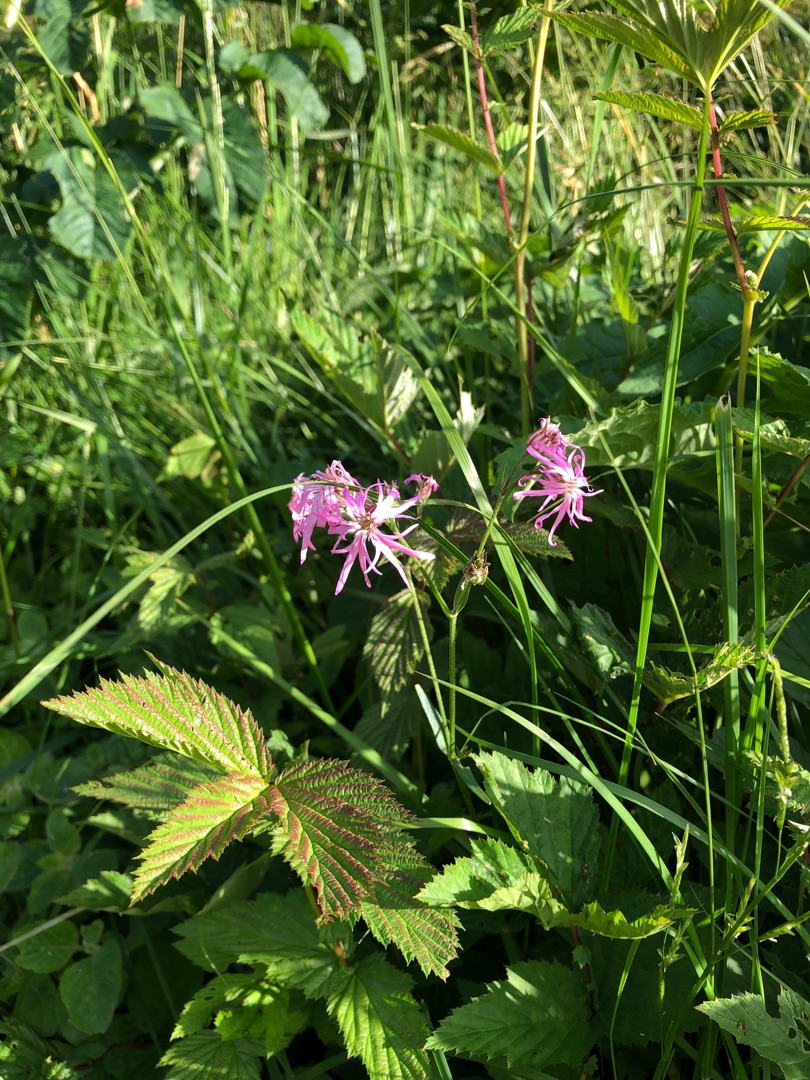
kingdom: Plantae
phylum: Tracheophyta
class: Magnoliopsida
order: Caryophyllales
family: Caryophyllaceae
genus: Silene
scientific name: Silene flos-cuculi
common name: Trævlekrone
